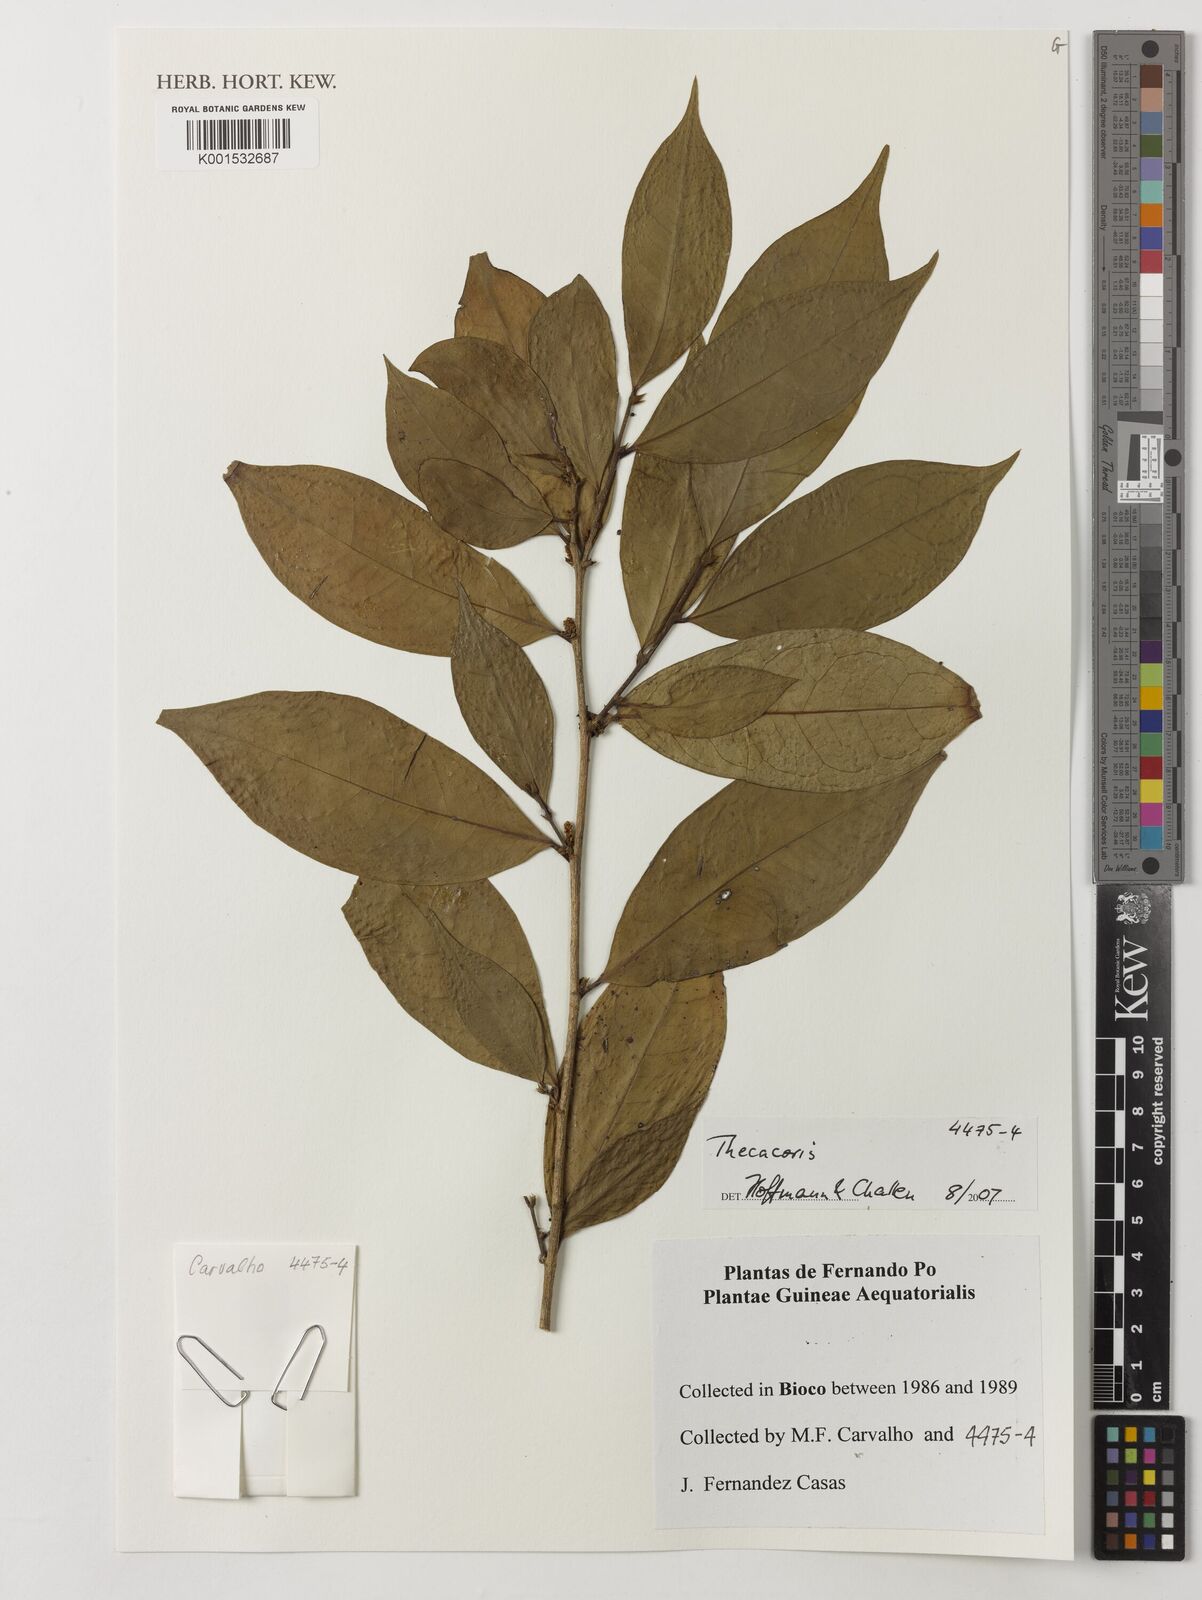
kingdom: Plantae
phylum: Tracheophyta
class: Magnoliopsida
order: Malpighiales
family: Phyllanthaceae
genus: Thecacoris
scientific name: Thecacoris
